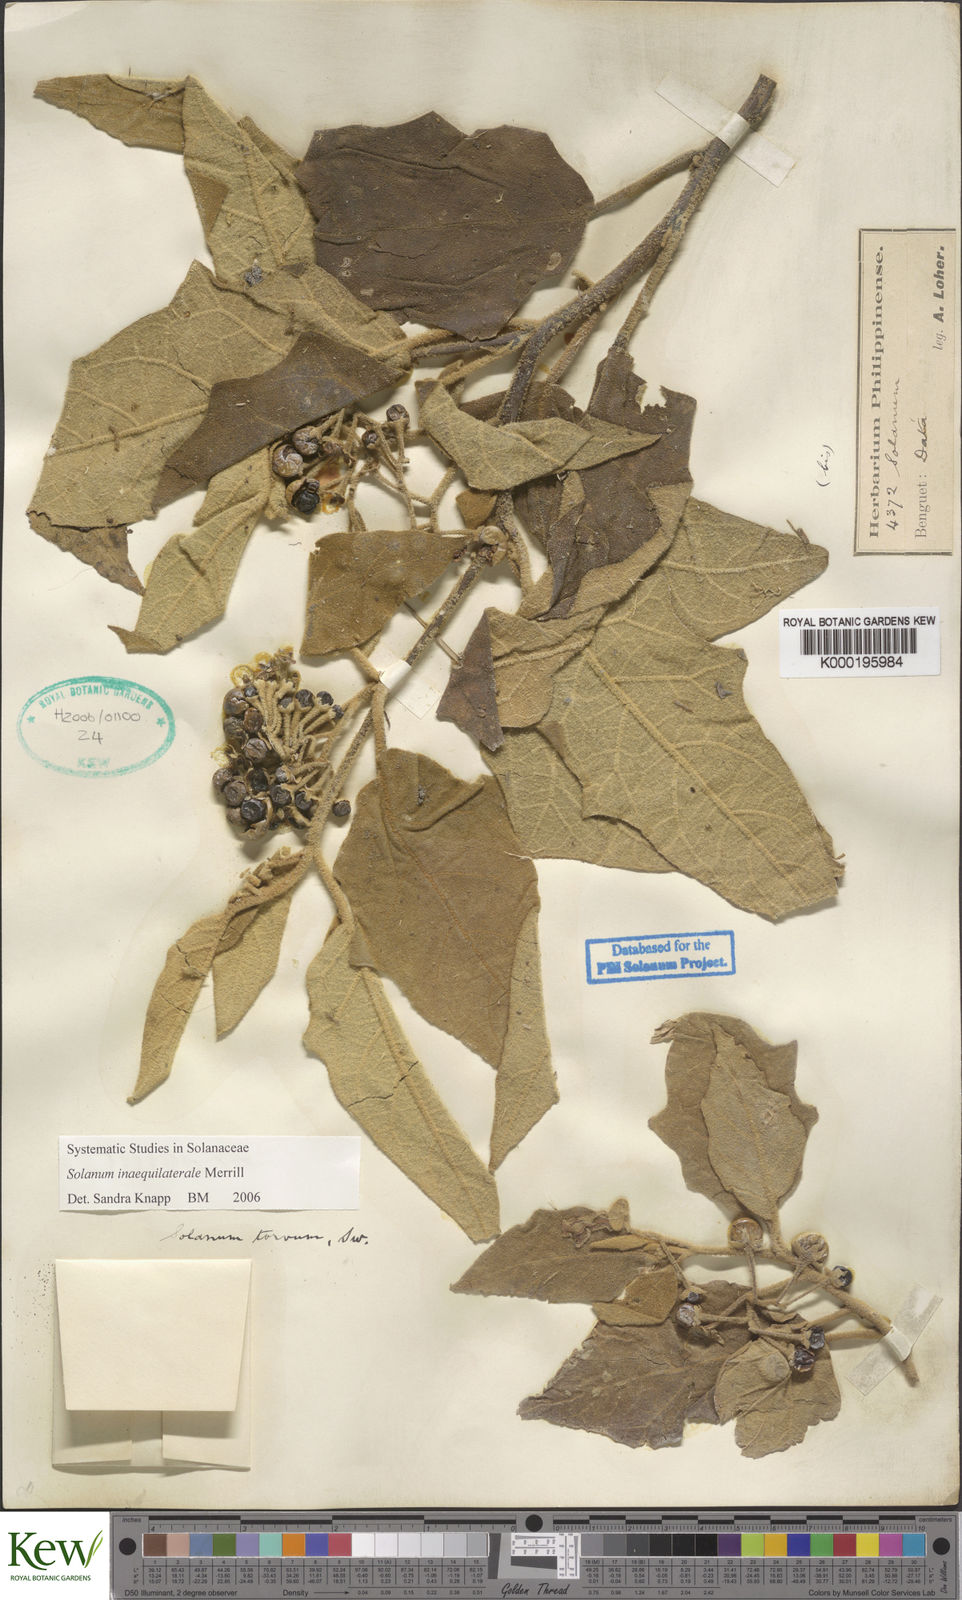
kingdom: Plantae
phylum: Tracheophyta
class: Magnoliopsida
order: Solanales
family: Solanaceae
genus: Solanum
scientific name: Solanum torvoideum
